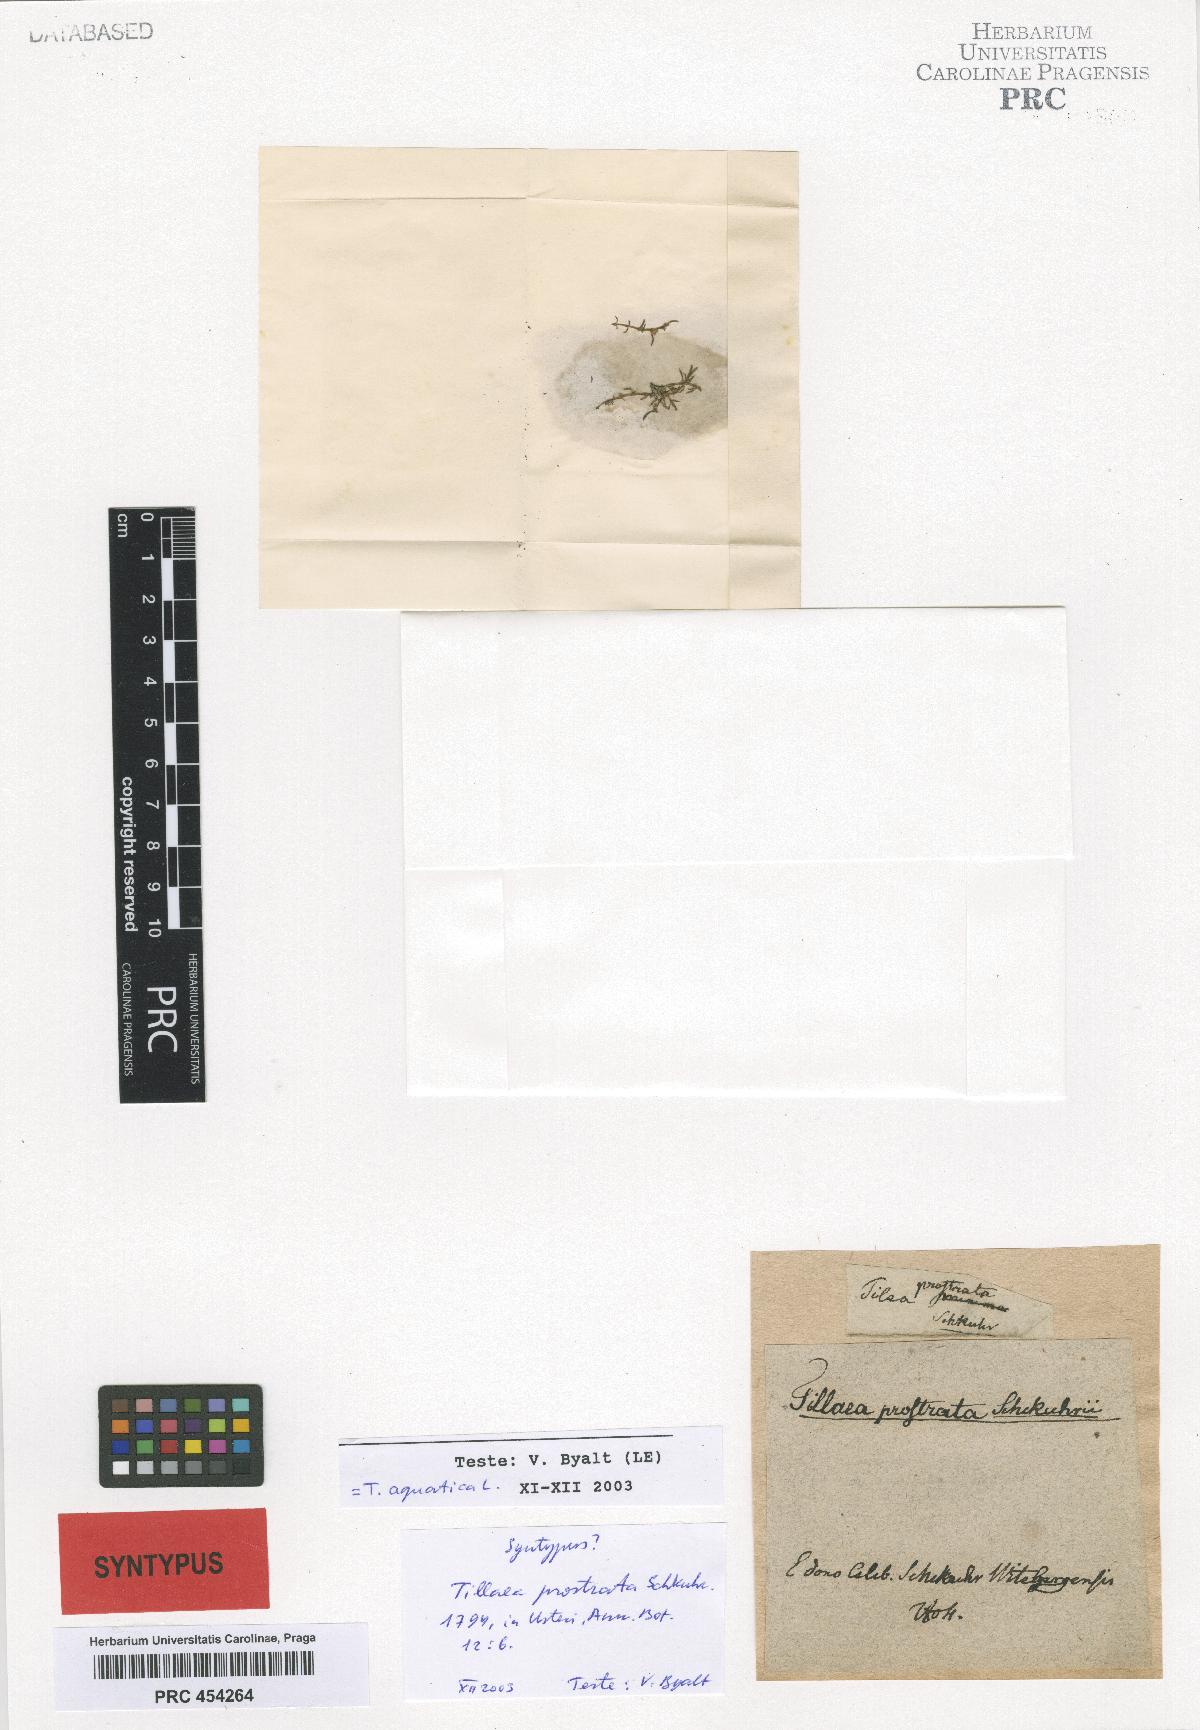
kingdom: Plantae
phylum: Tracheophyta
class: Magnoliopsida
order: Saxifragales
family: Crassulaceae
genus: Crassula
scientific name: Crassula aquatica
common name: Pigmyweed
